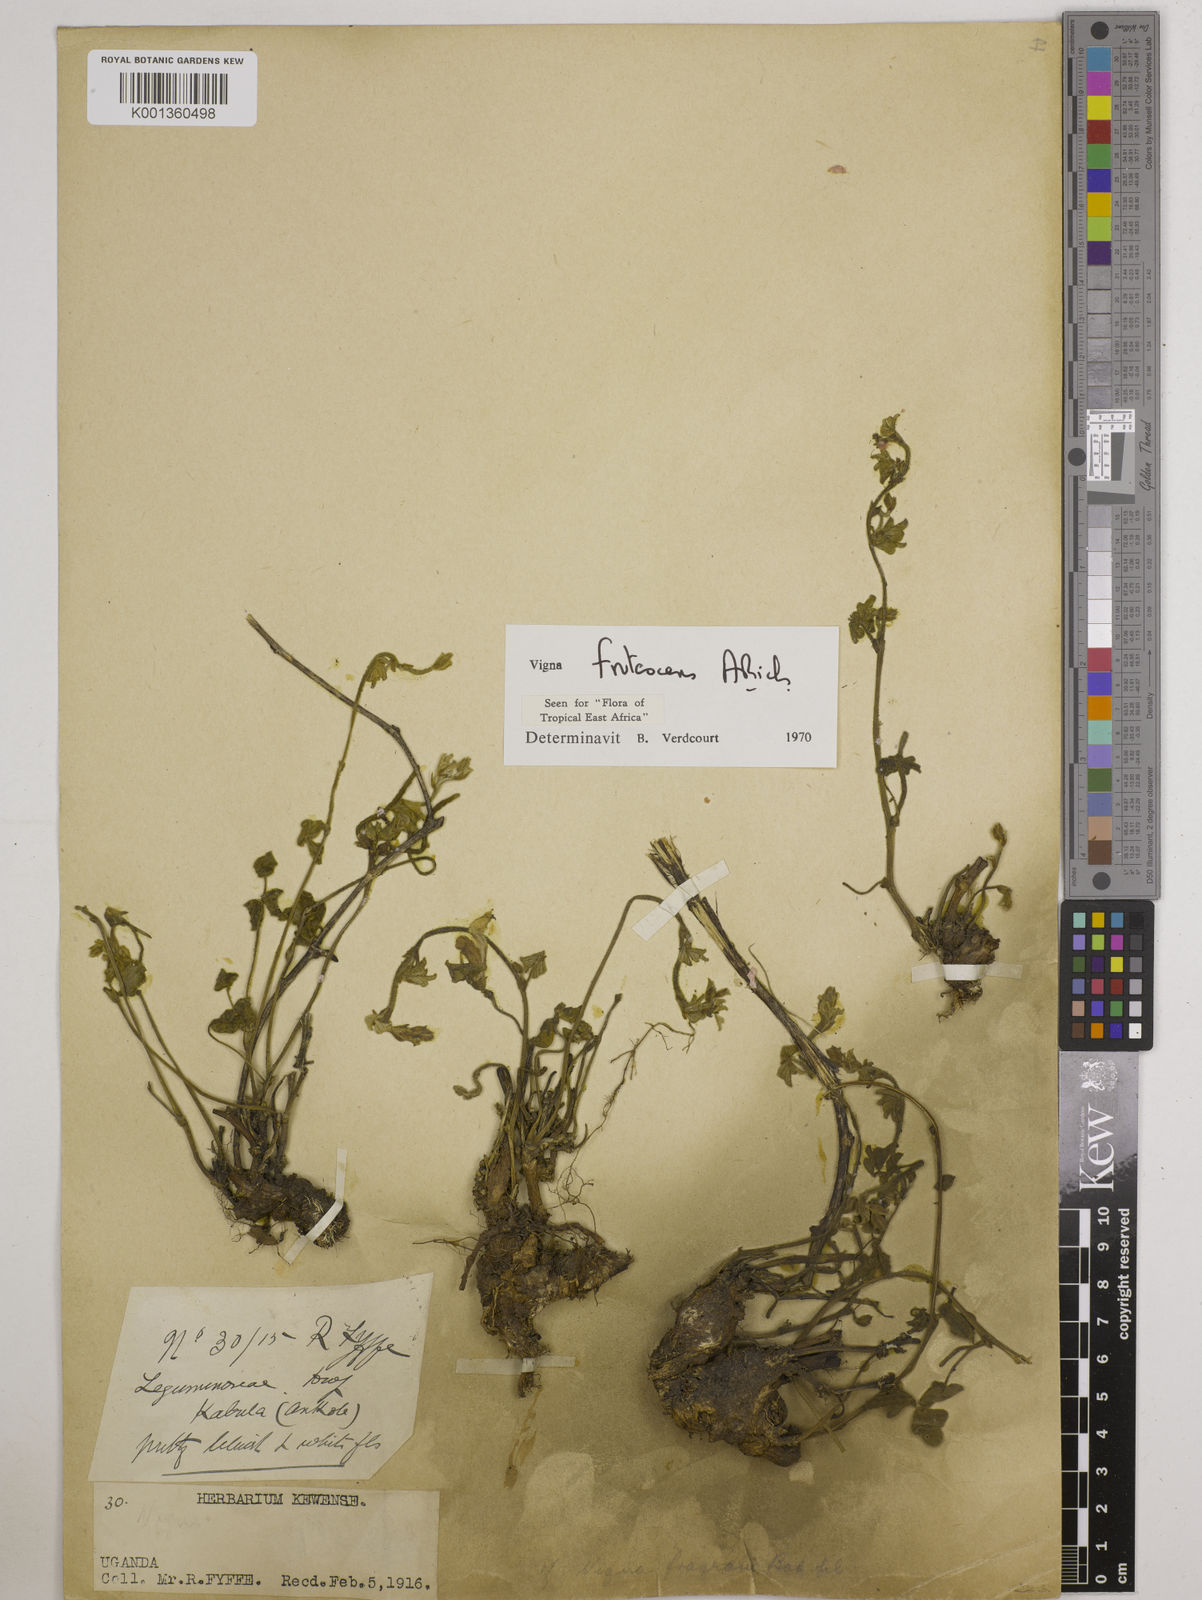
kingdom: Plantae
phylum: Tracheophyta
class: Magnoliopsida
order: Fabales
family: Fabaceae
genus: Vigna
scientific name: Vigna frutescens
